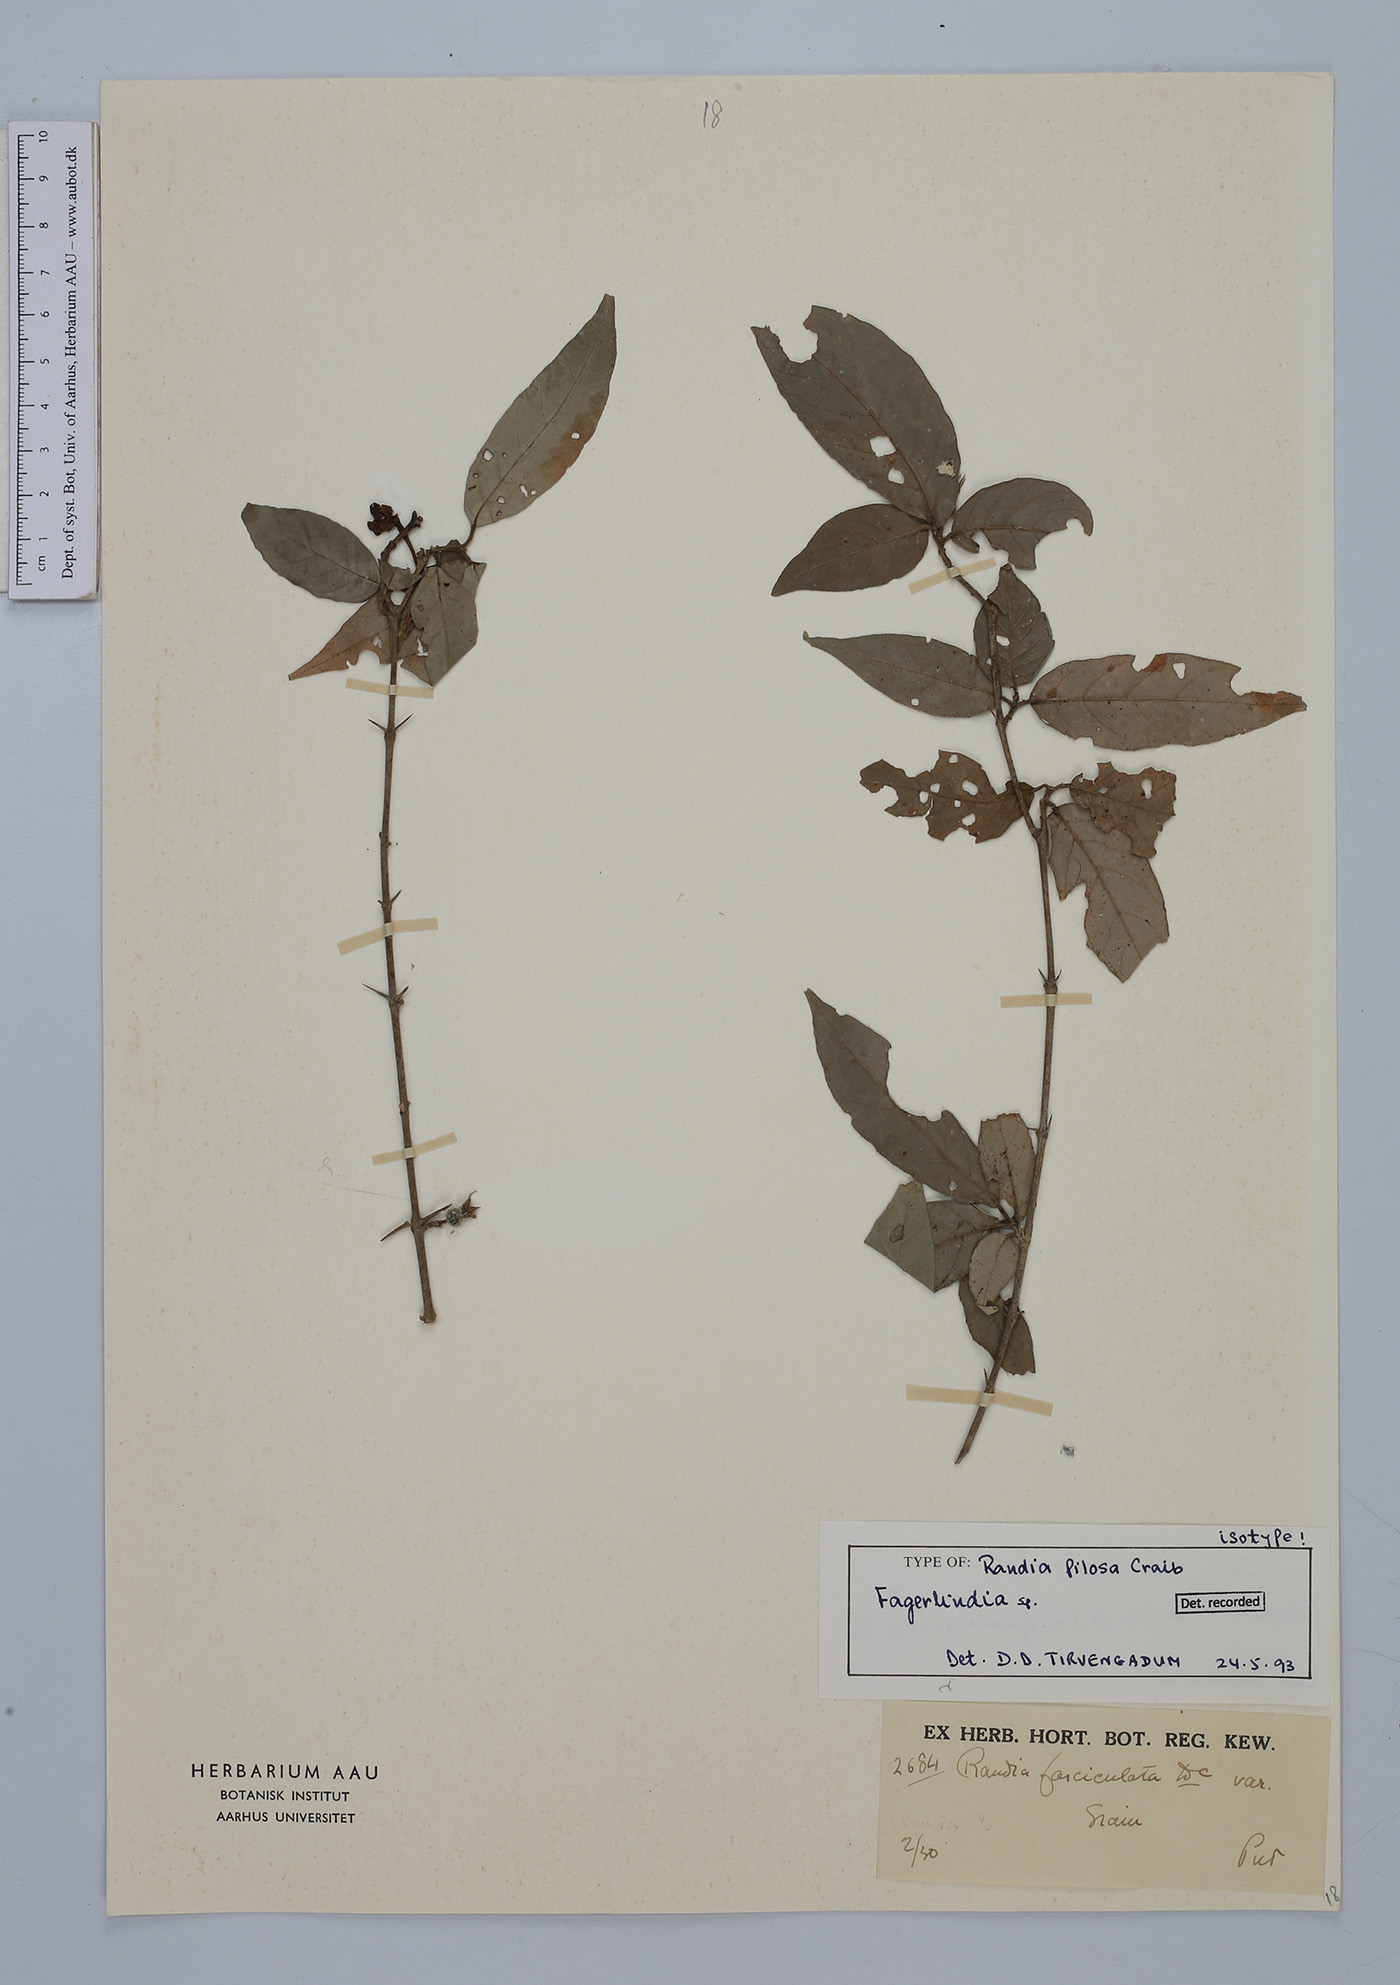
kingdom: Plantae
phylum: Tracheophyta
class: Magnoliopsida
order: Gentianales
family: Rubiaceae
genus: Benkara
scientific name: Benkara
